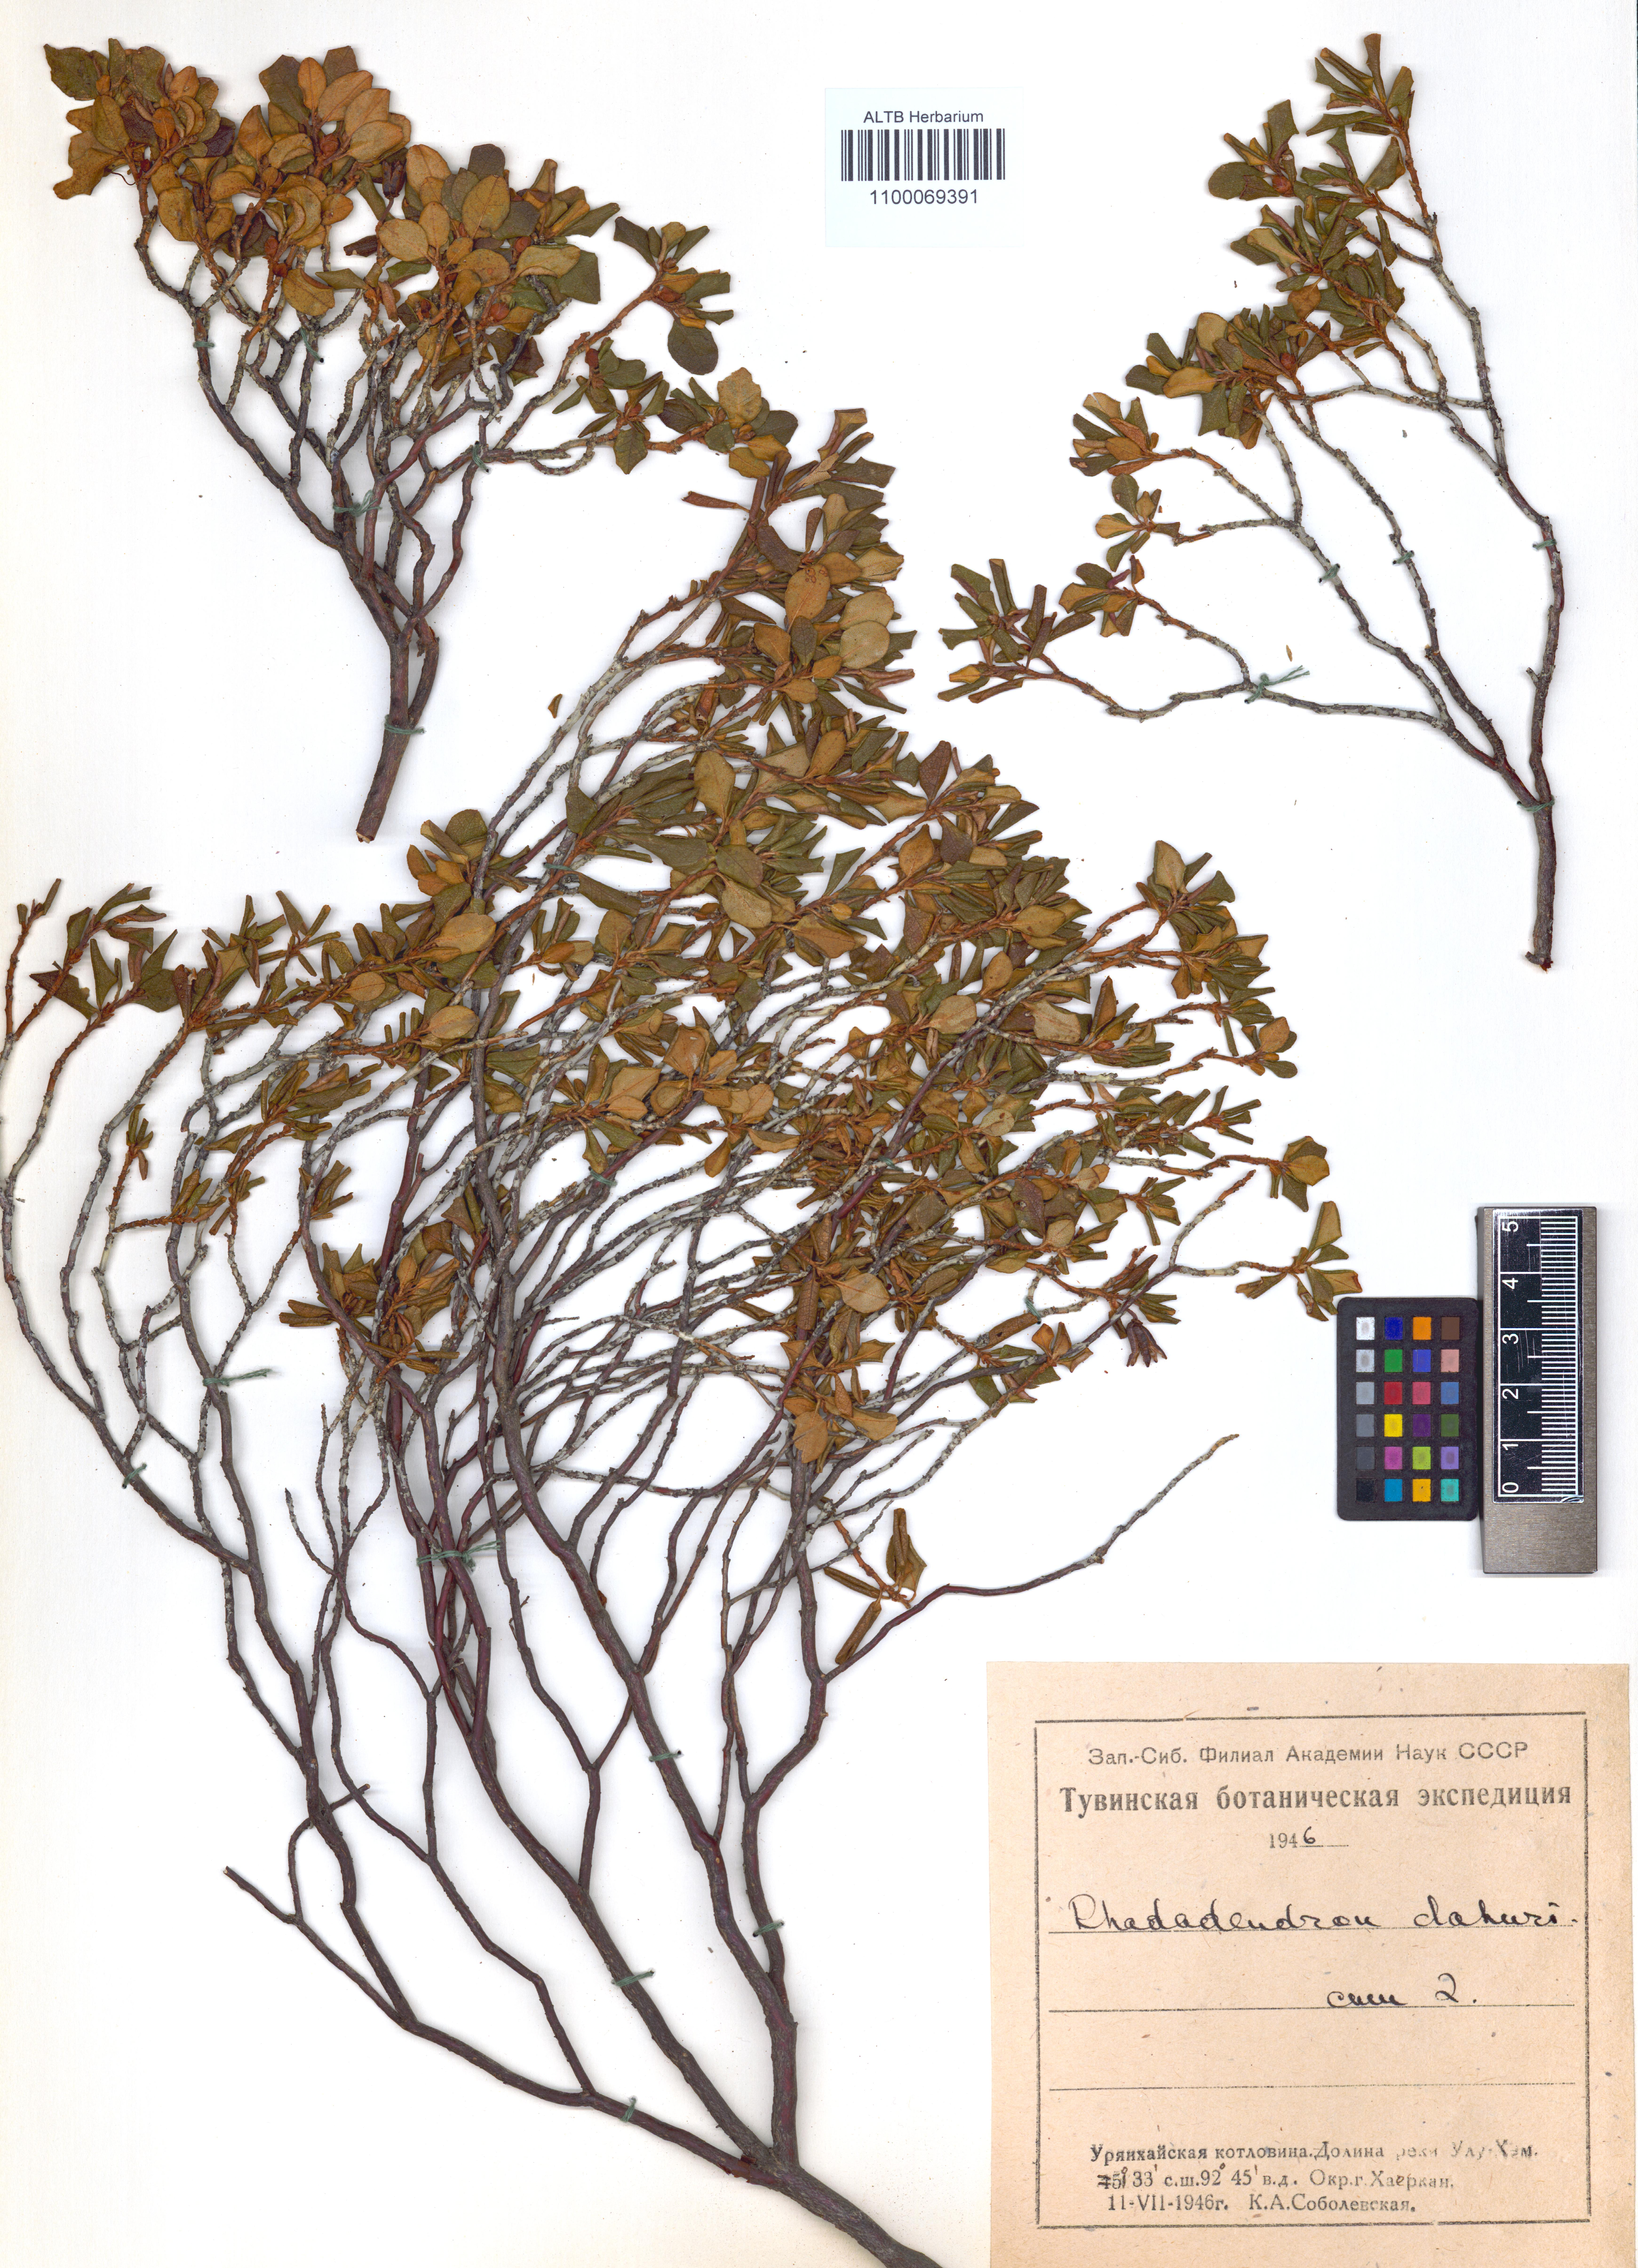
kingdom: Plantae
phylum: Tracheophyta
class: Magnoliopsida
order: Ericales
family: Ericaceae
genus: Rhododendron
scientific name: Rhododendron dauricum
